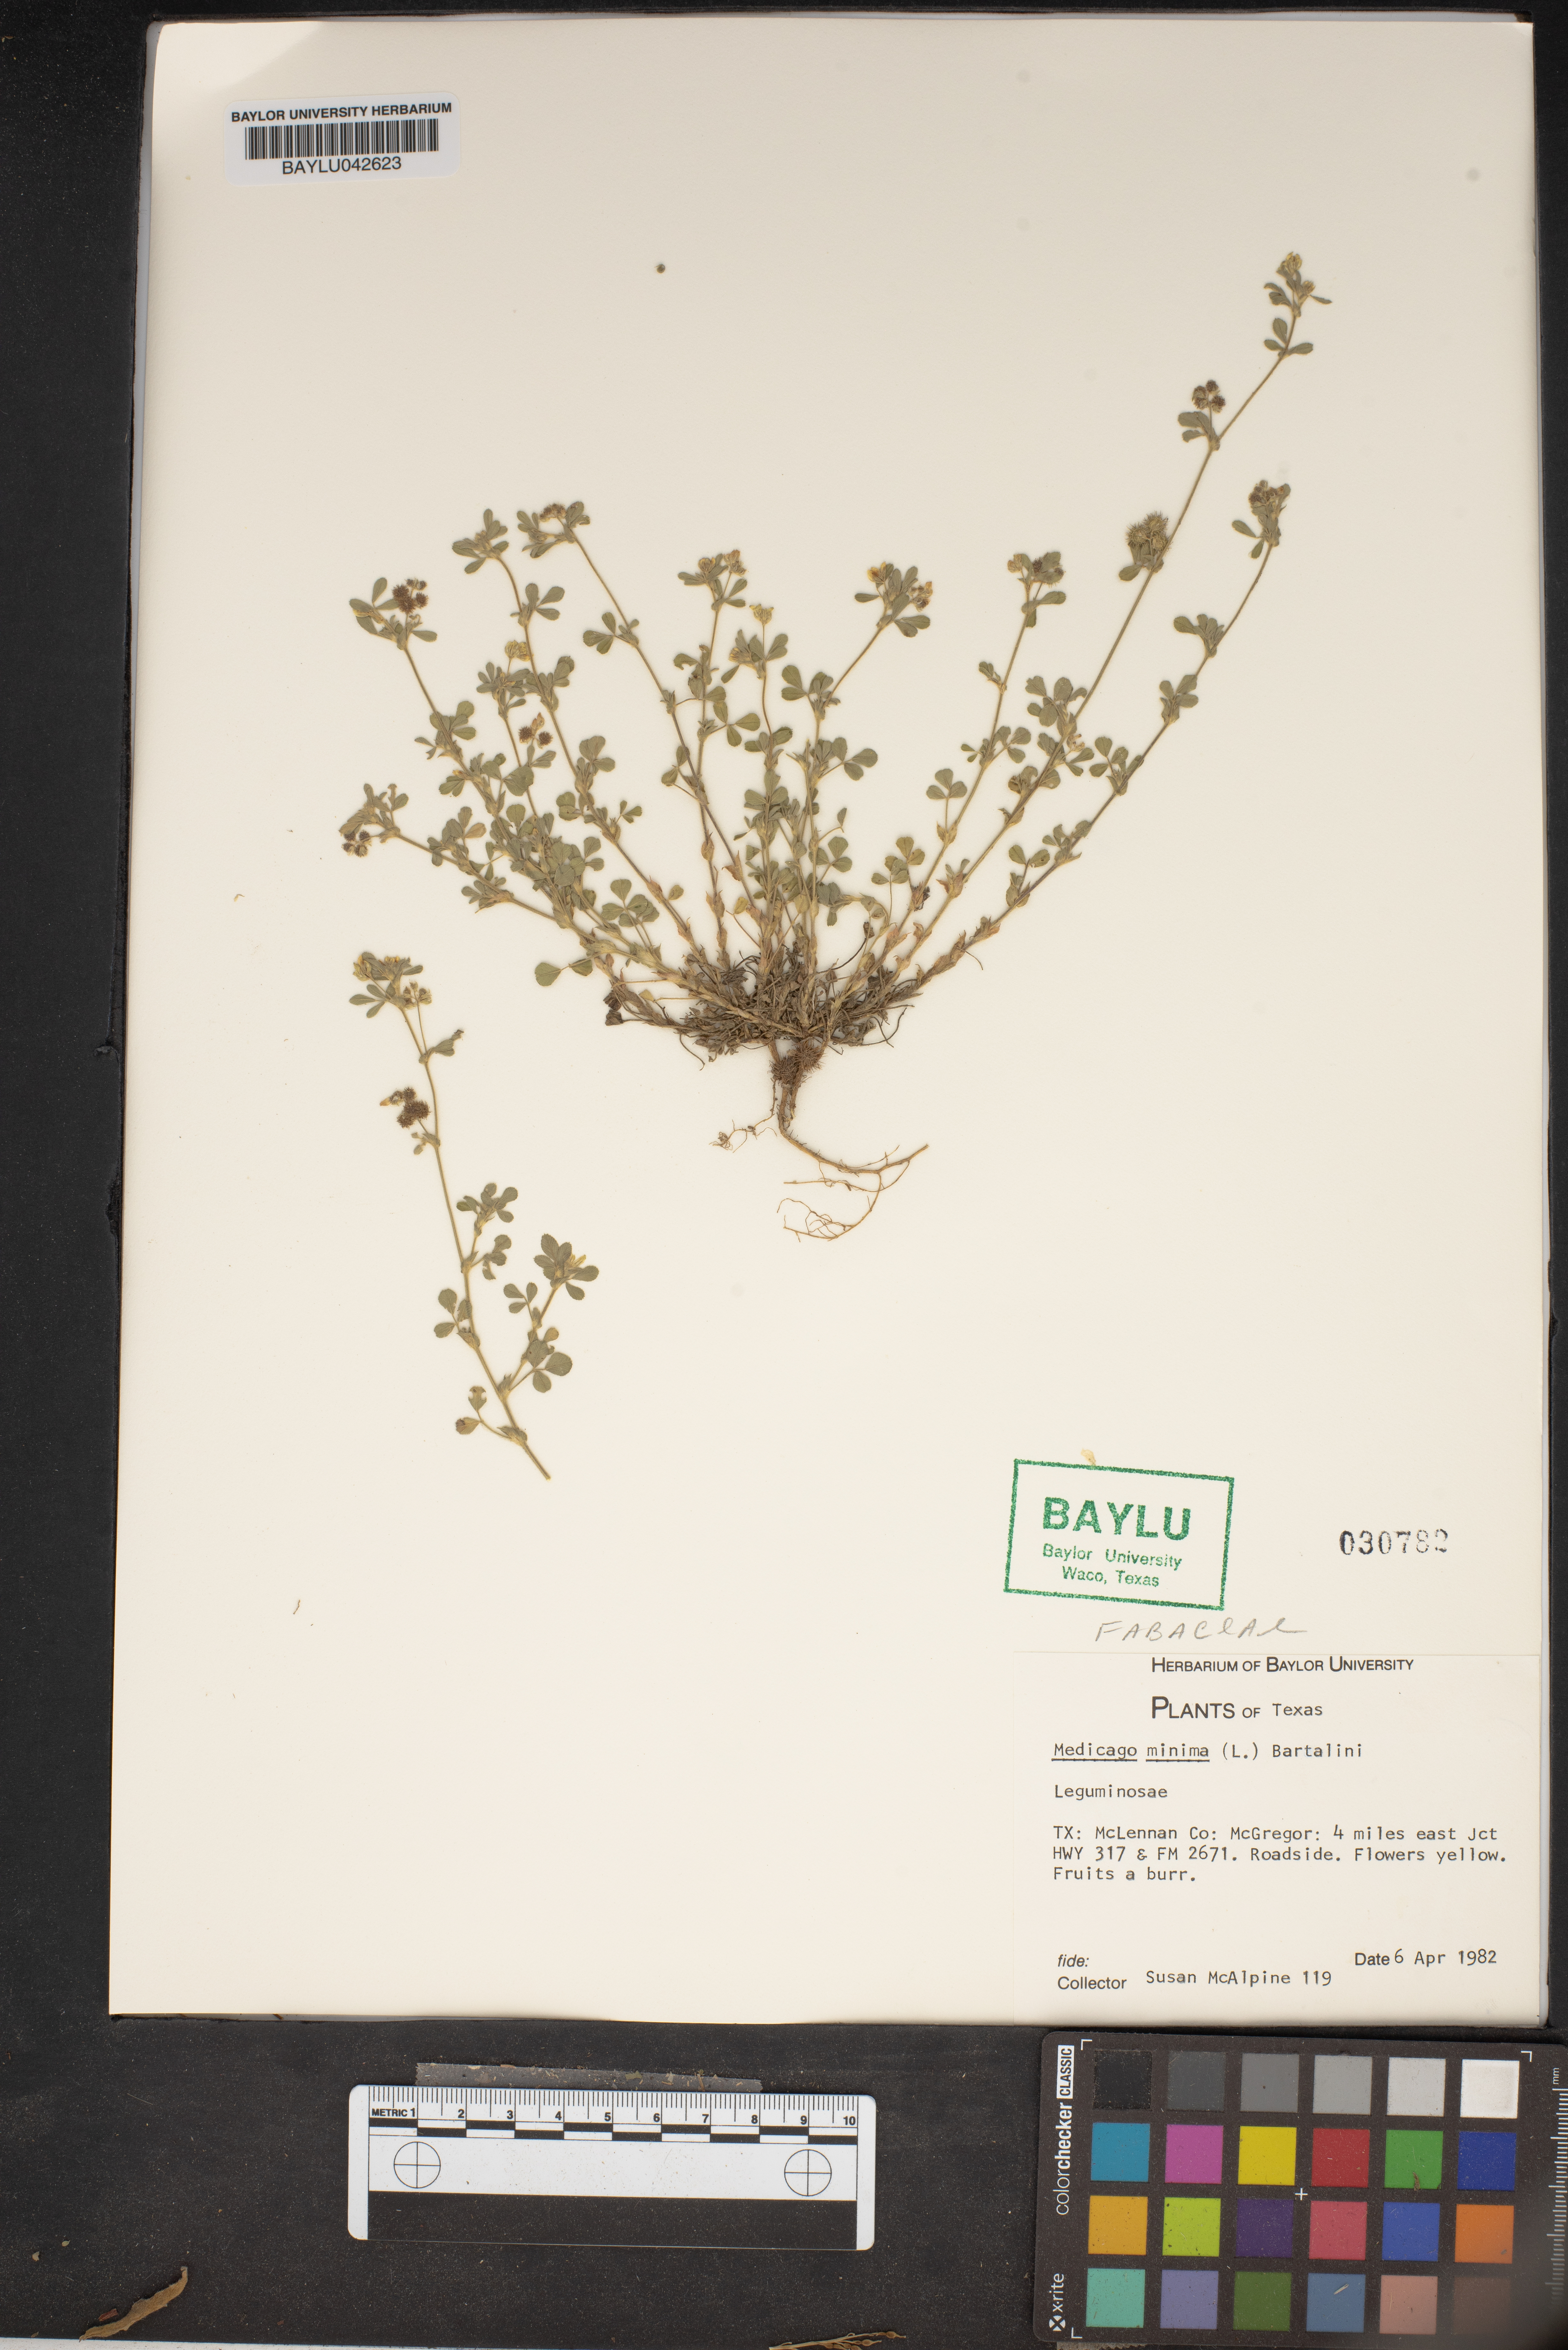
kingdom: Plantae
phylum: Tracheophyta
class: Magnoliopsida
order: Fabales
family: Fabaceae
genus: Medicago
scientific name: Medicago minima
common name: Little bur-clover
